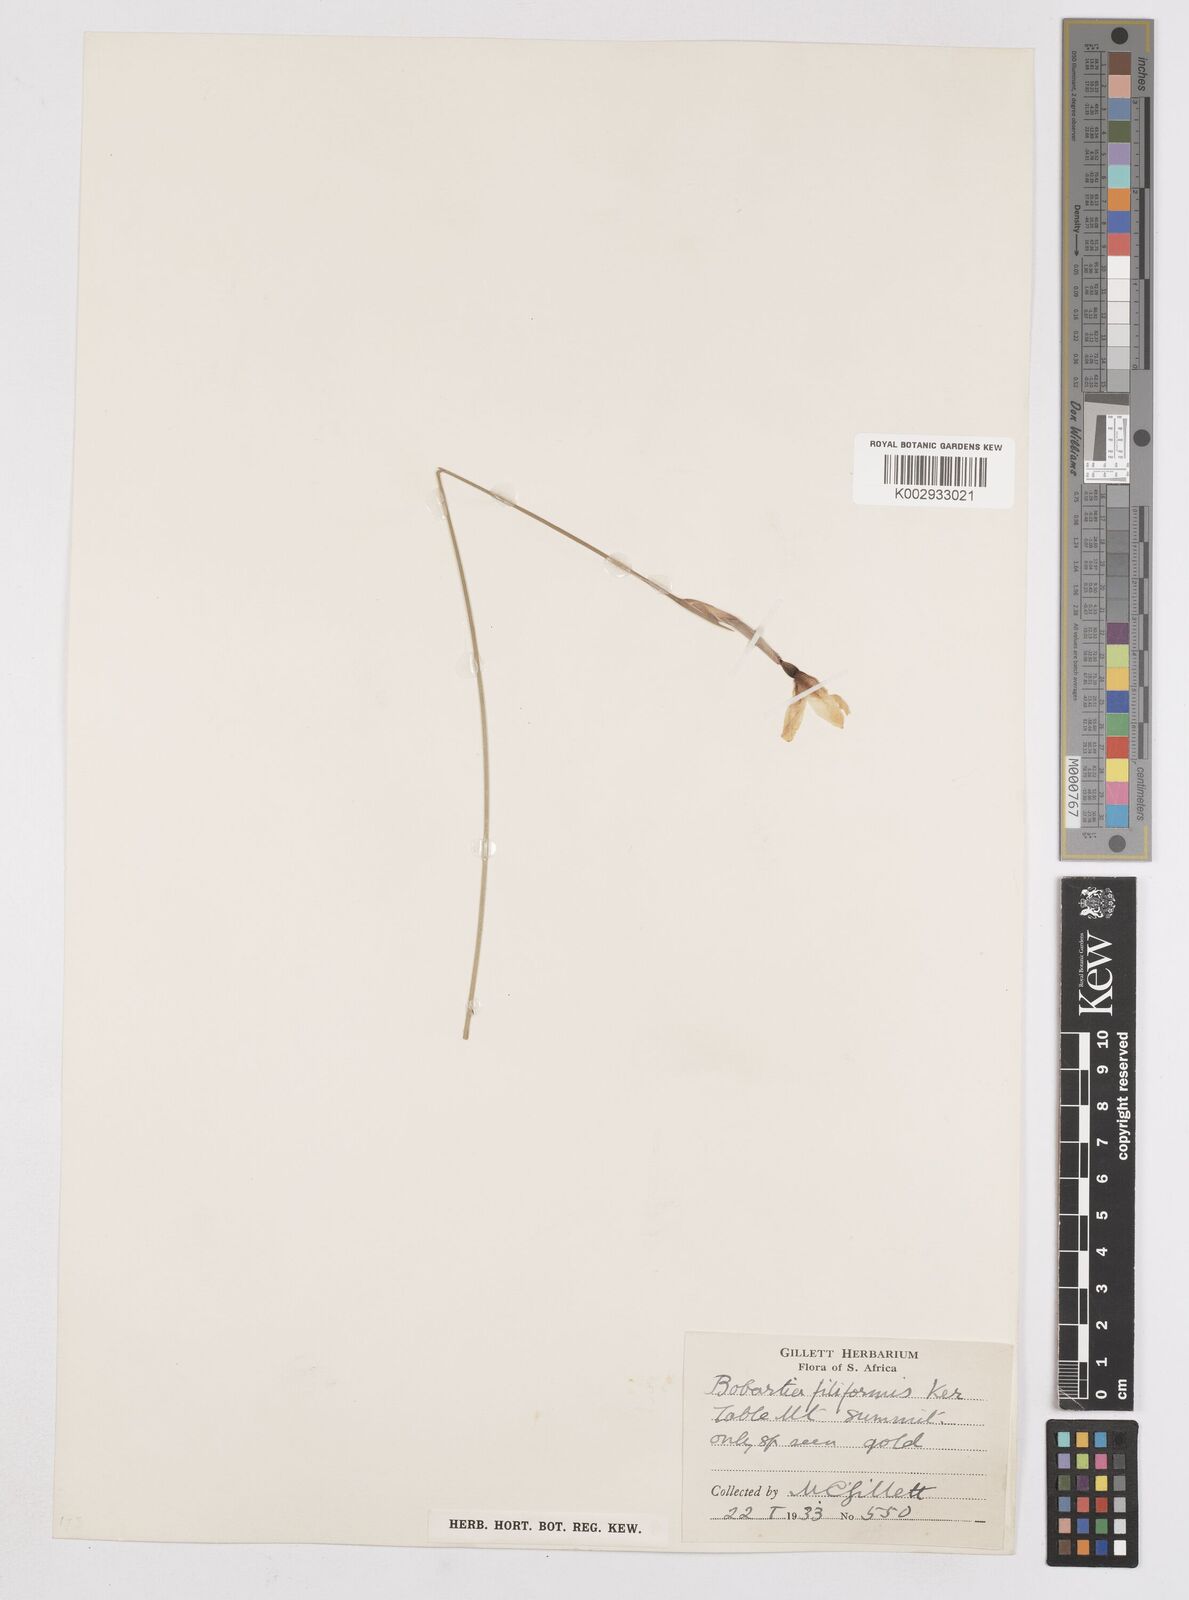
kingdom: Plantae
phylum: Tracheophyta
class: Liliopsida
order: Asparagales
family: Iridaceae
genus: Bobartia
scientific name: Bobartia filiformis
